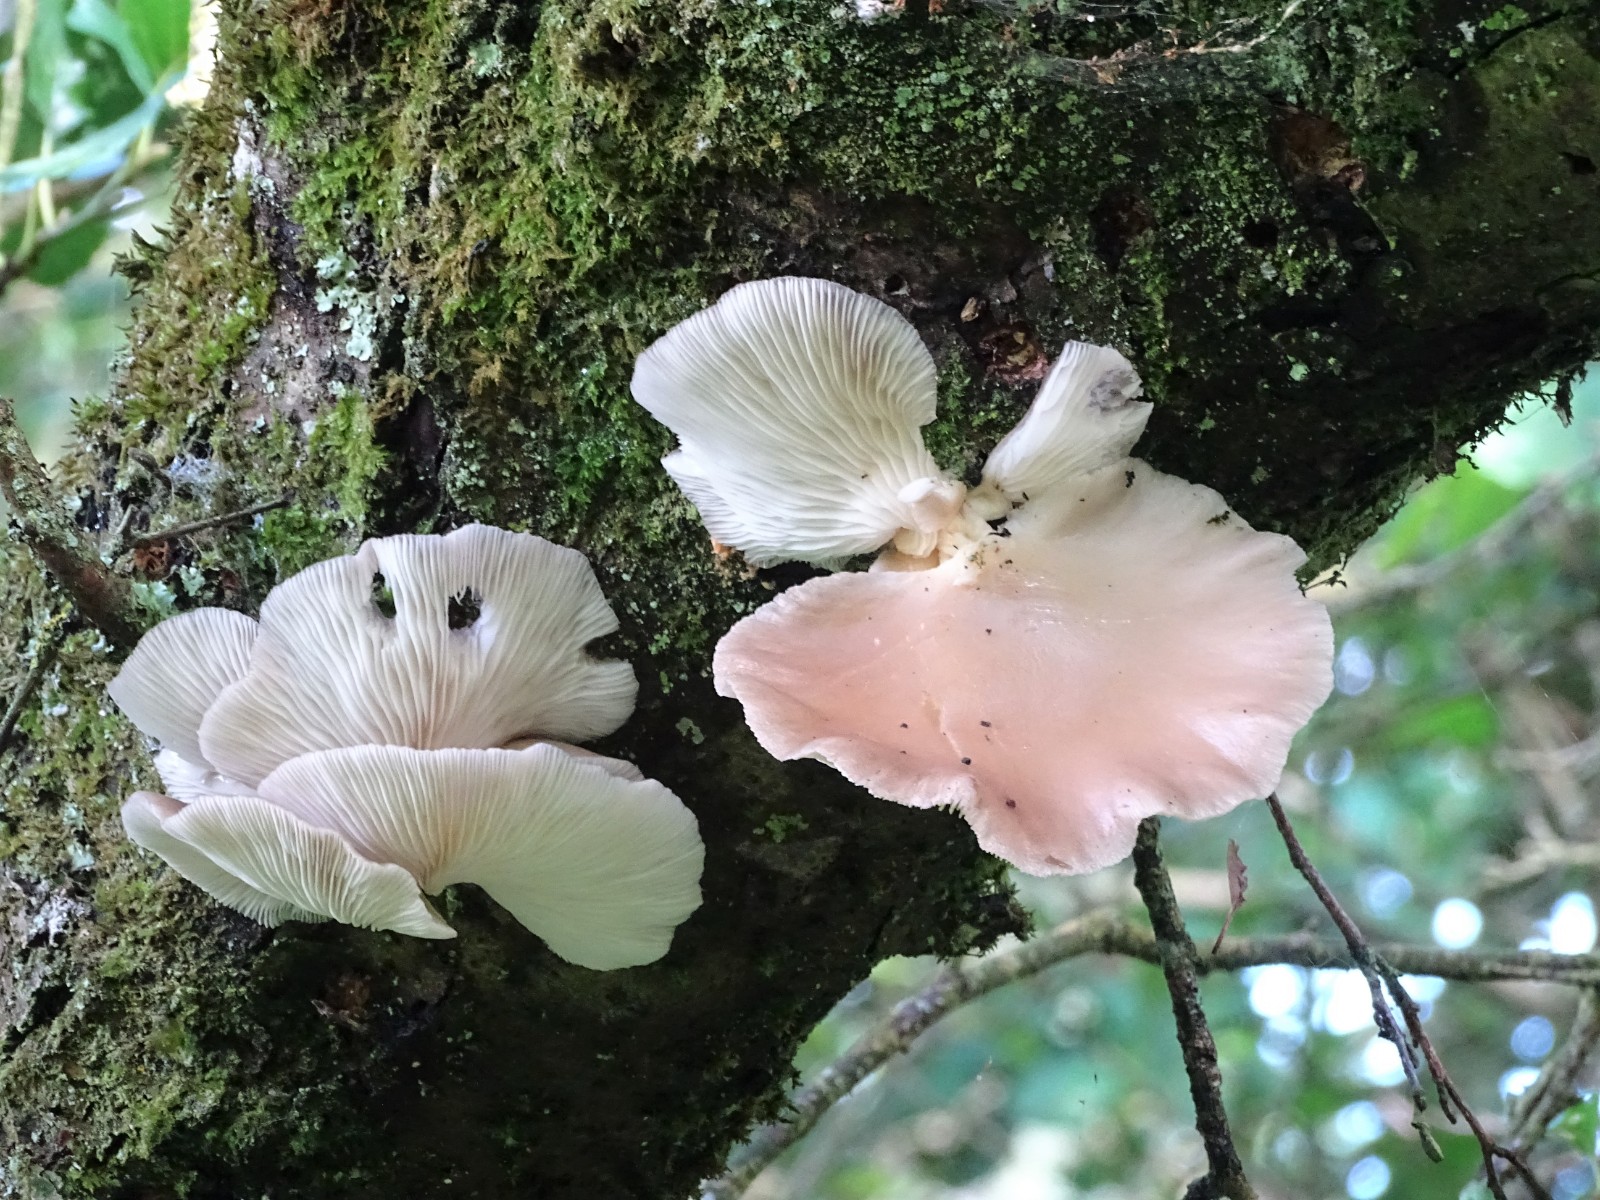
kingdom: Fungi
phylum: Basidiomycota
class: Agaricomycetes
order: Agaricales
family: Pleurotaceae
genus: Pleurotus
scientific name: Pleurotus pulmonarius
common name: sommer-østershat
